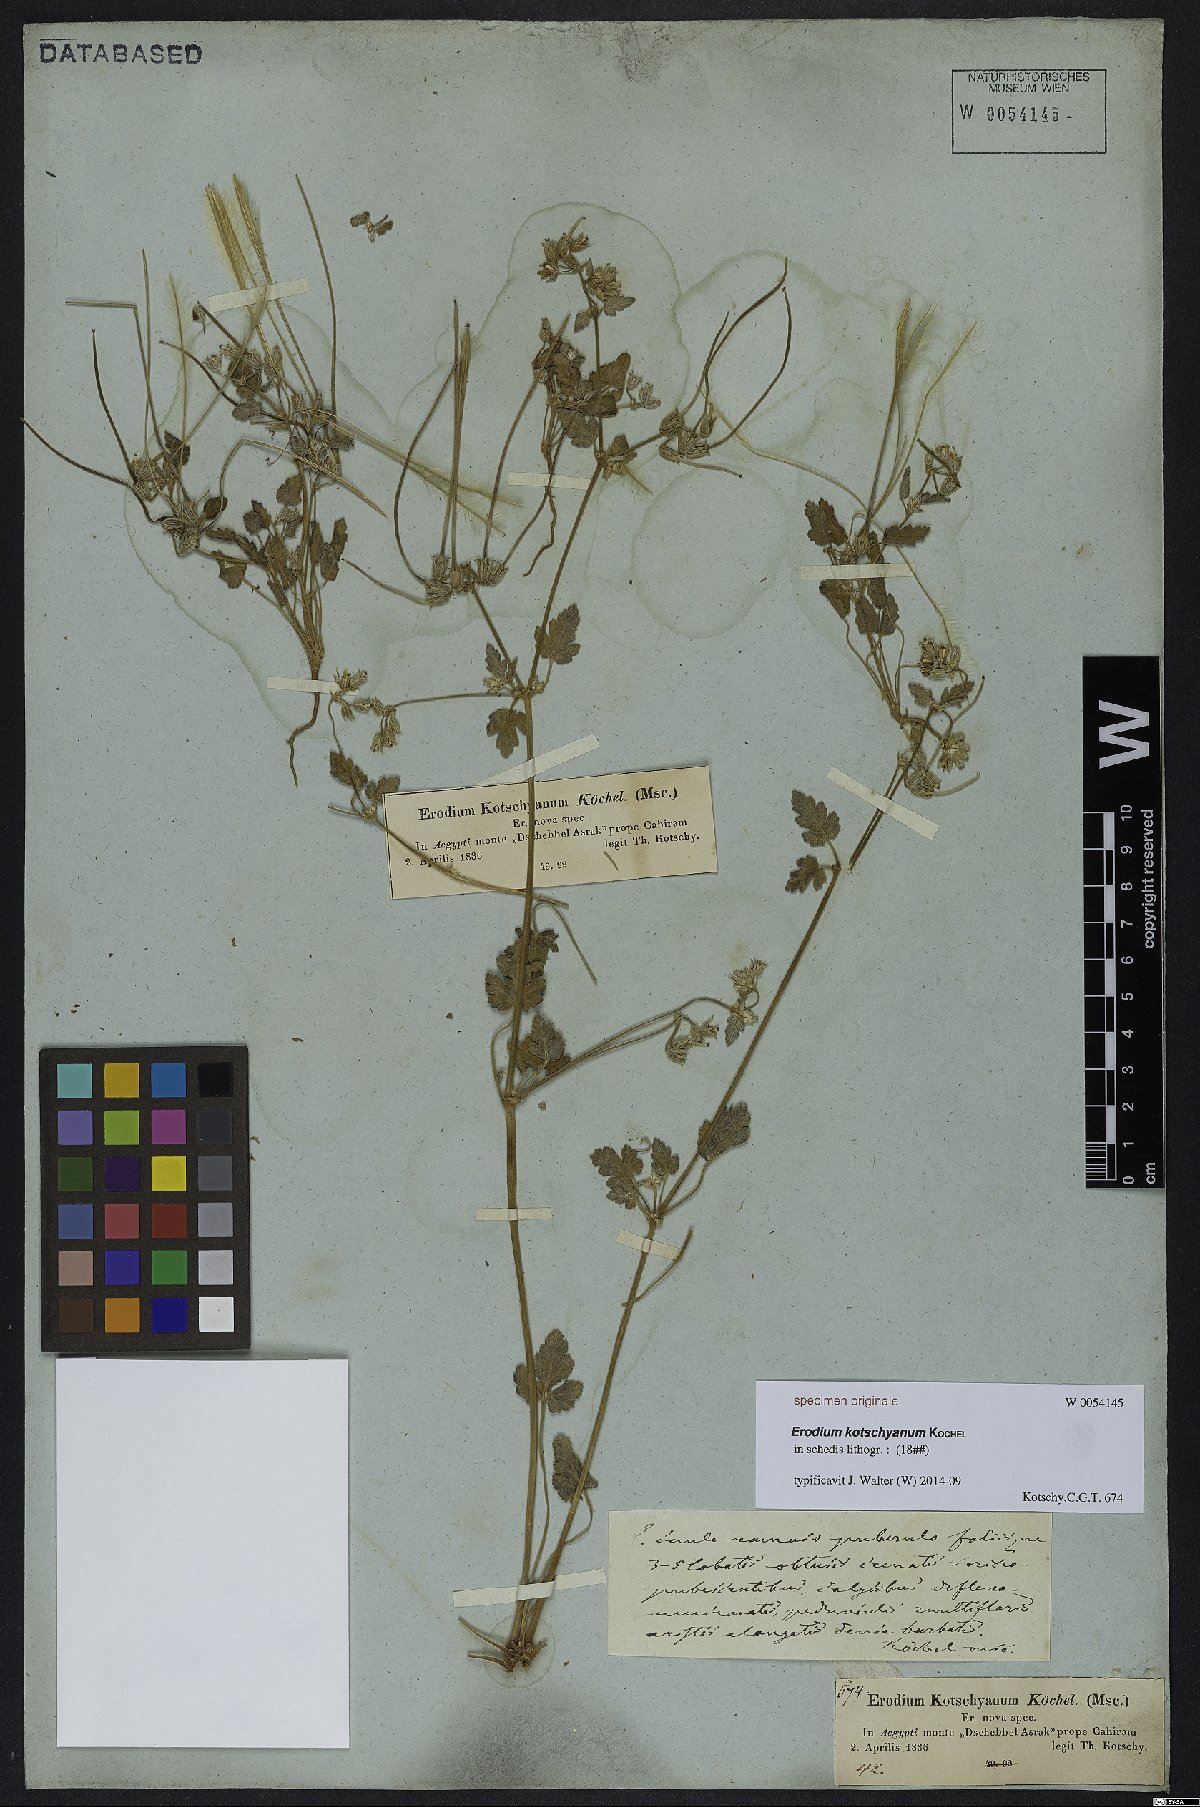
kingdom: Plantae
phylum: Tracheophyta
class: Magnoliopsida
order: Geraniales
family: Geraniaceae
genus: Erodium
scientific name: Erodium oxyrrhynchum
